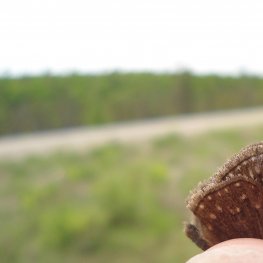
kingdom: Animalia
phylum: Arthropoda
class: Insecta
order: Lepidoptera
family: Hesperiidae
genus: Gesta
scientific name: Gesta
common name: Columbine Duskywing
